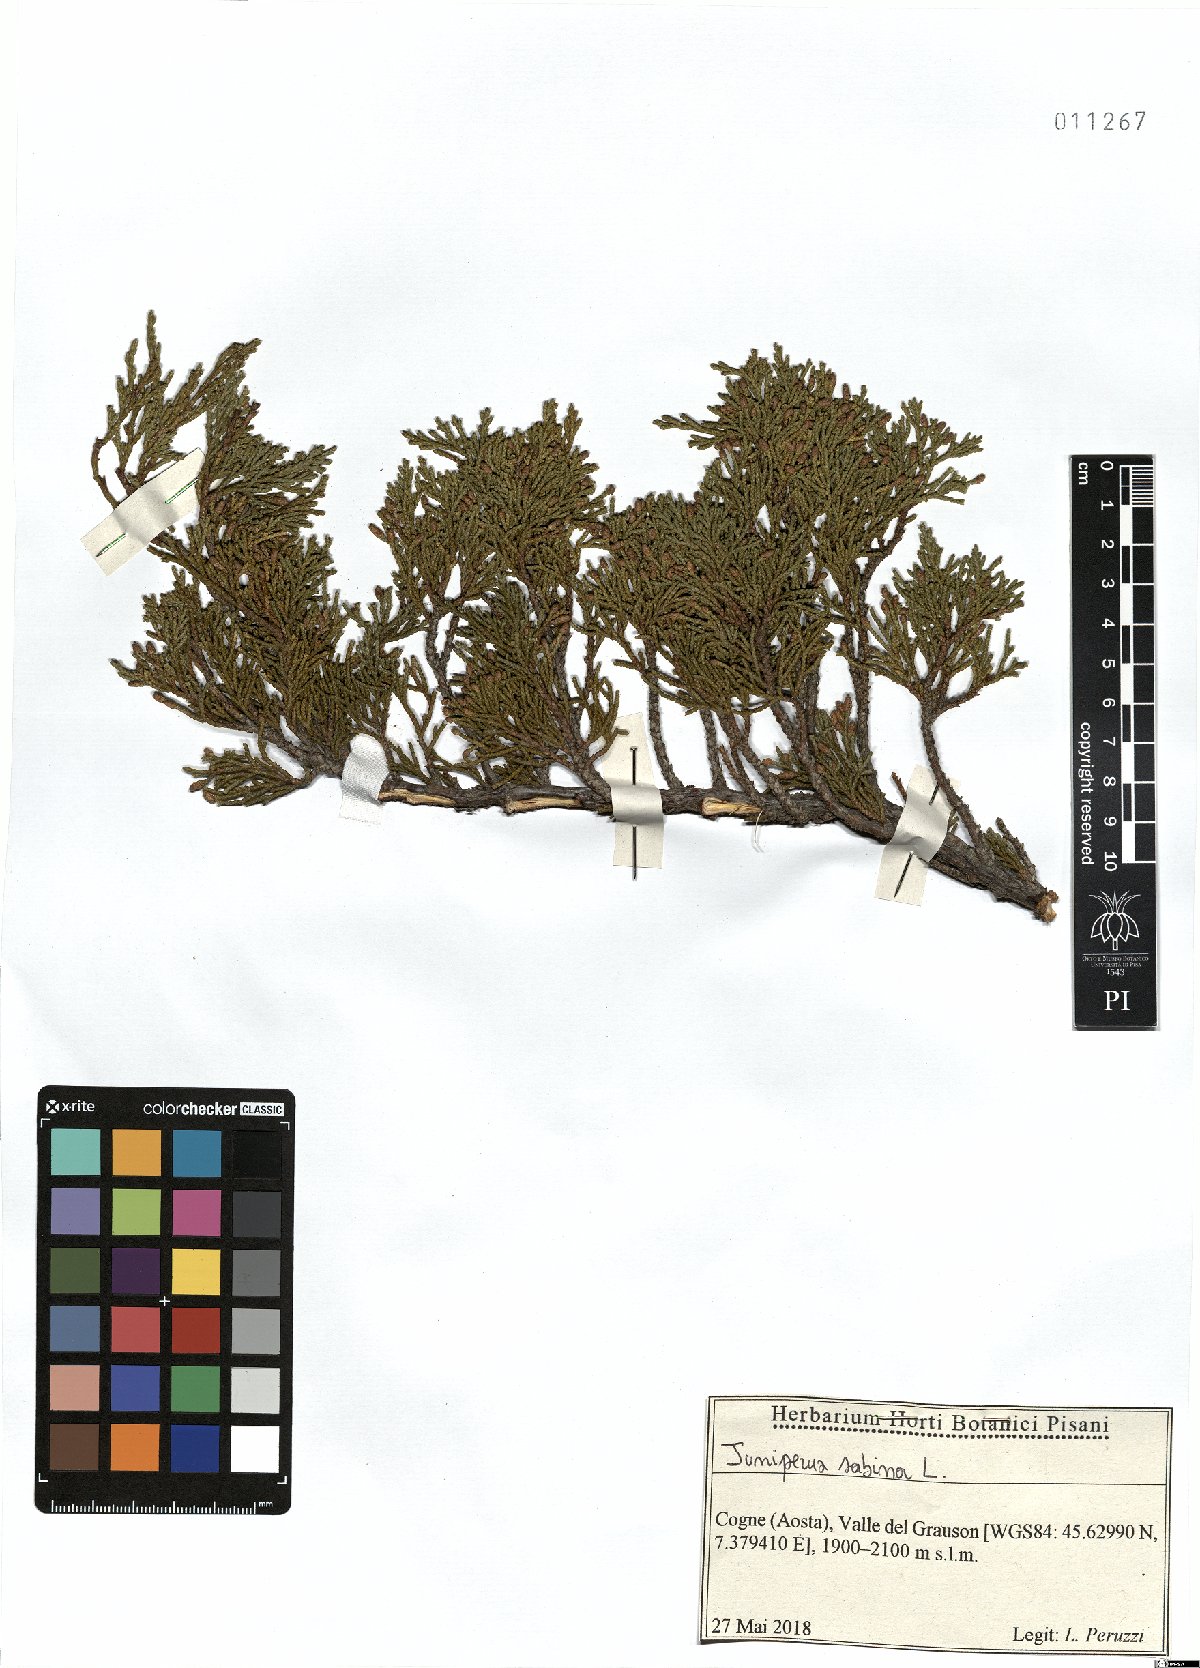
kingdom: Plantae
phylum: Tracheophyta
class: Pinopsida
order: Pinales
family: Cupressaceae
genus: Juniperus
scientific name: Juniperus sabina
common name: Savin
